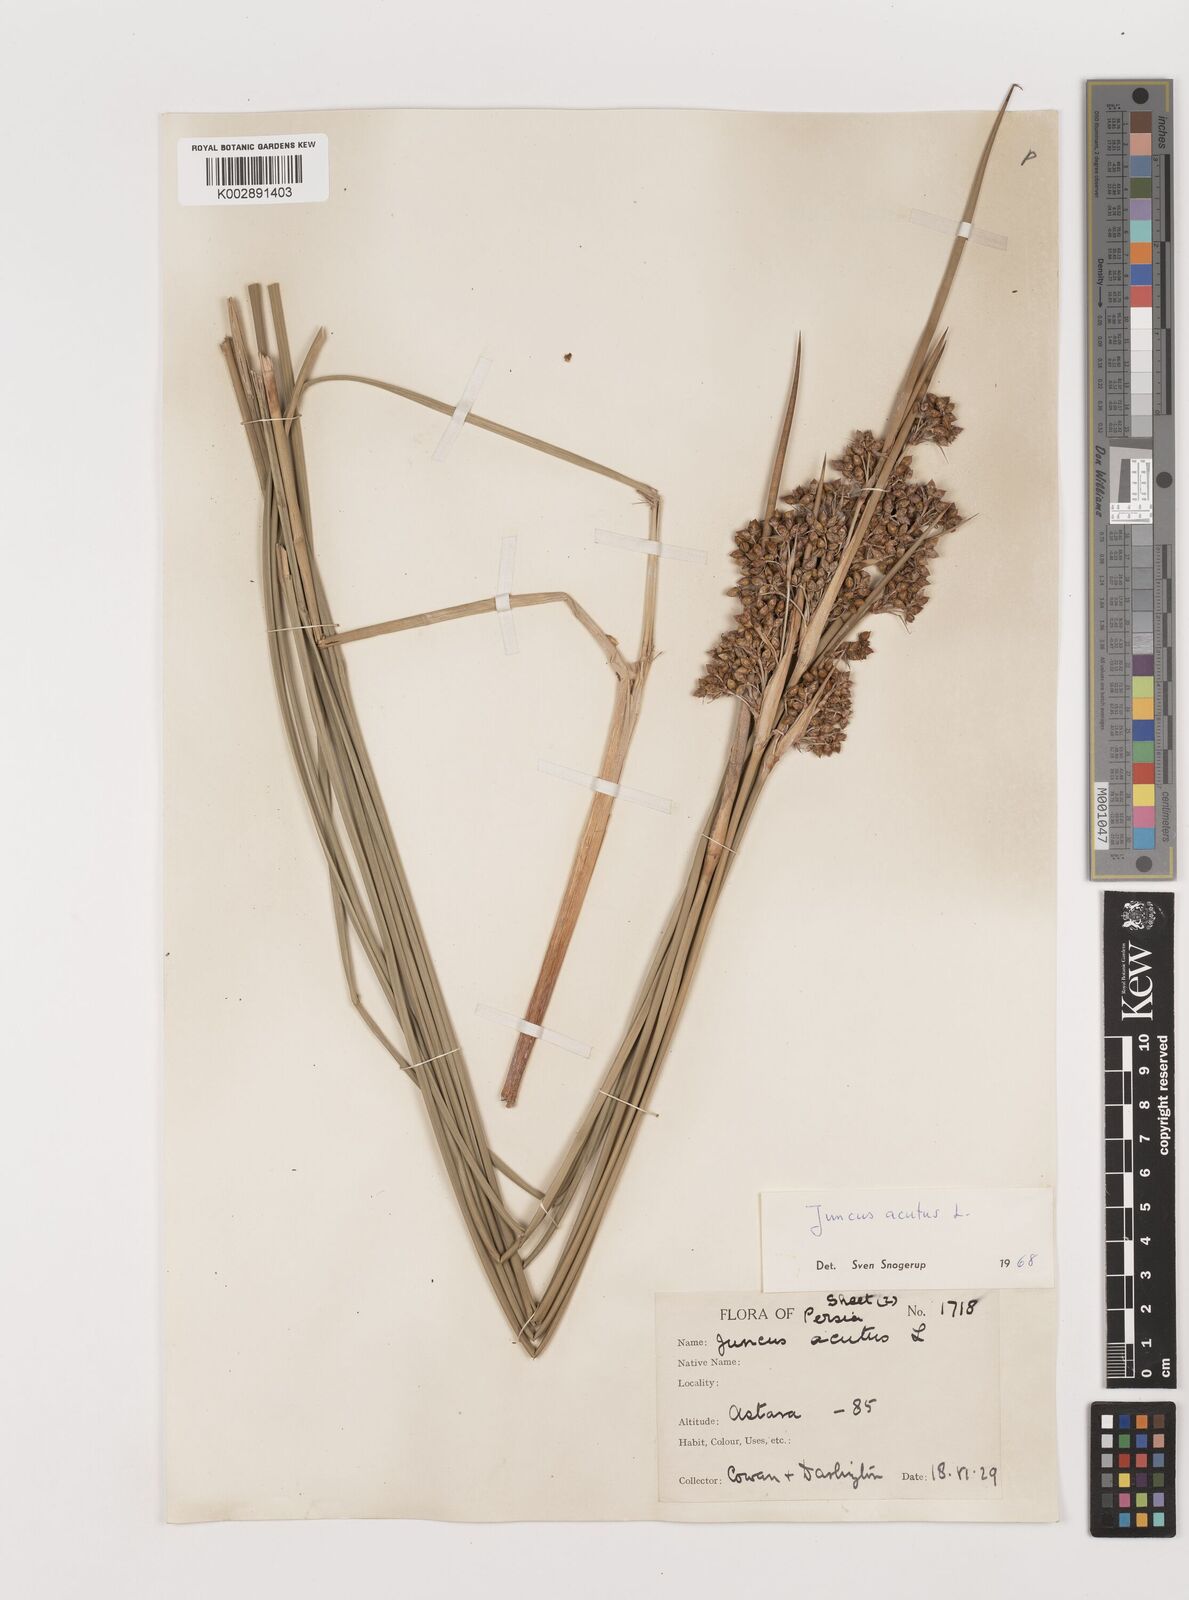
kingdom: Plantae
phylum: Tracheophyta
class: Liliopsida
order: Poales
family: Juncaceae
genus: Juncus
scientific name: Juncus acutus
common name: Sharp rush
